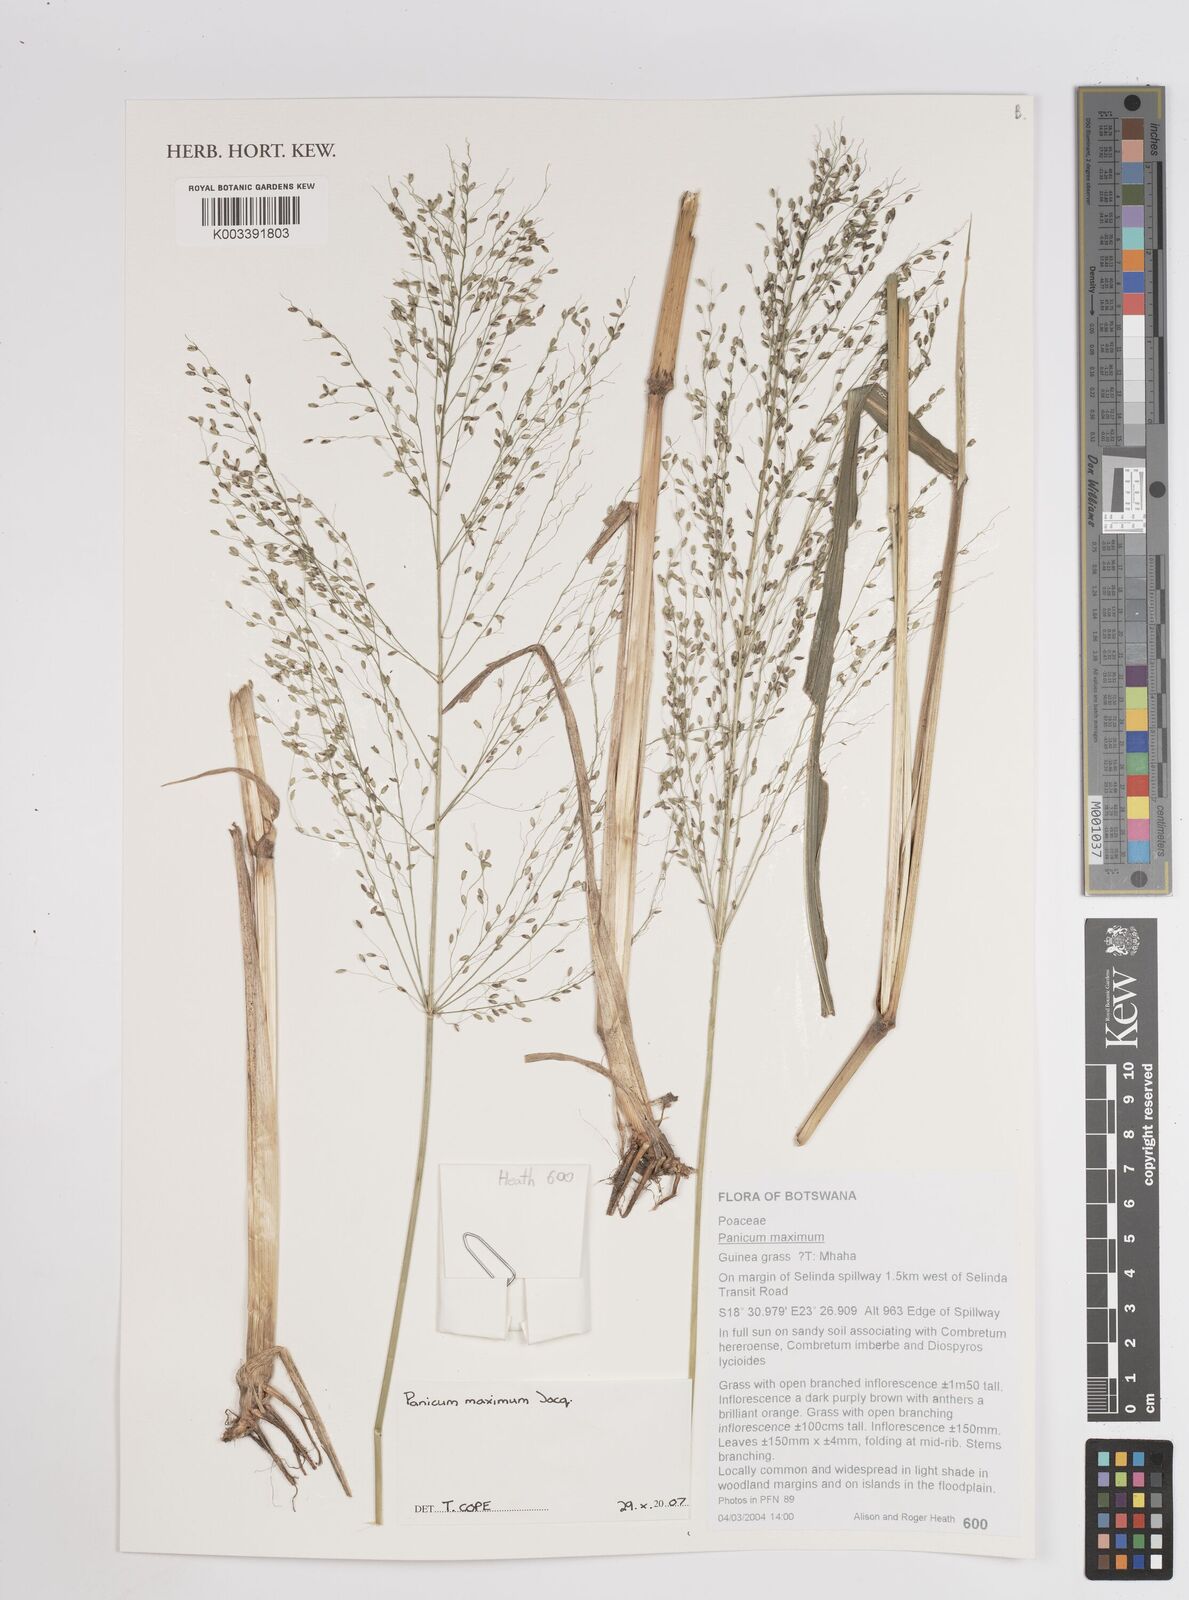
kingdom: Plantae
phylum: Tracheophyta
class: Liliopsida
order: Poales
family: Poaceae
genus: Megathyrsus
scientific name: Megathyrsus maximus
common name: Guineagrass
